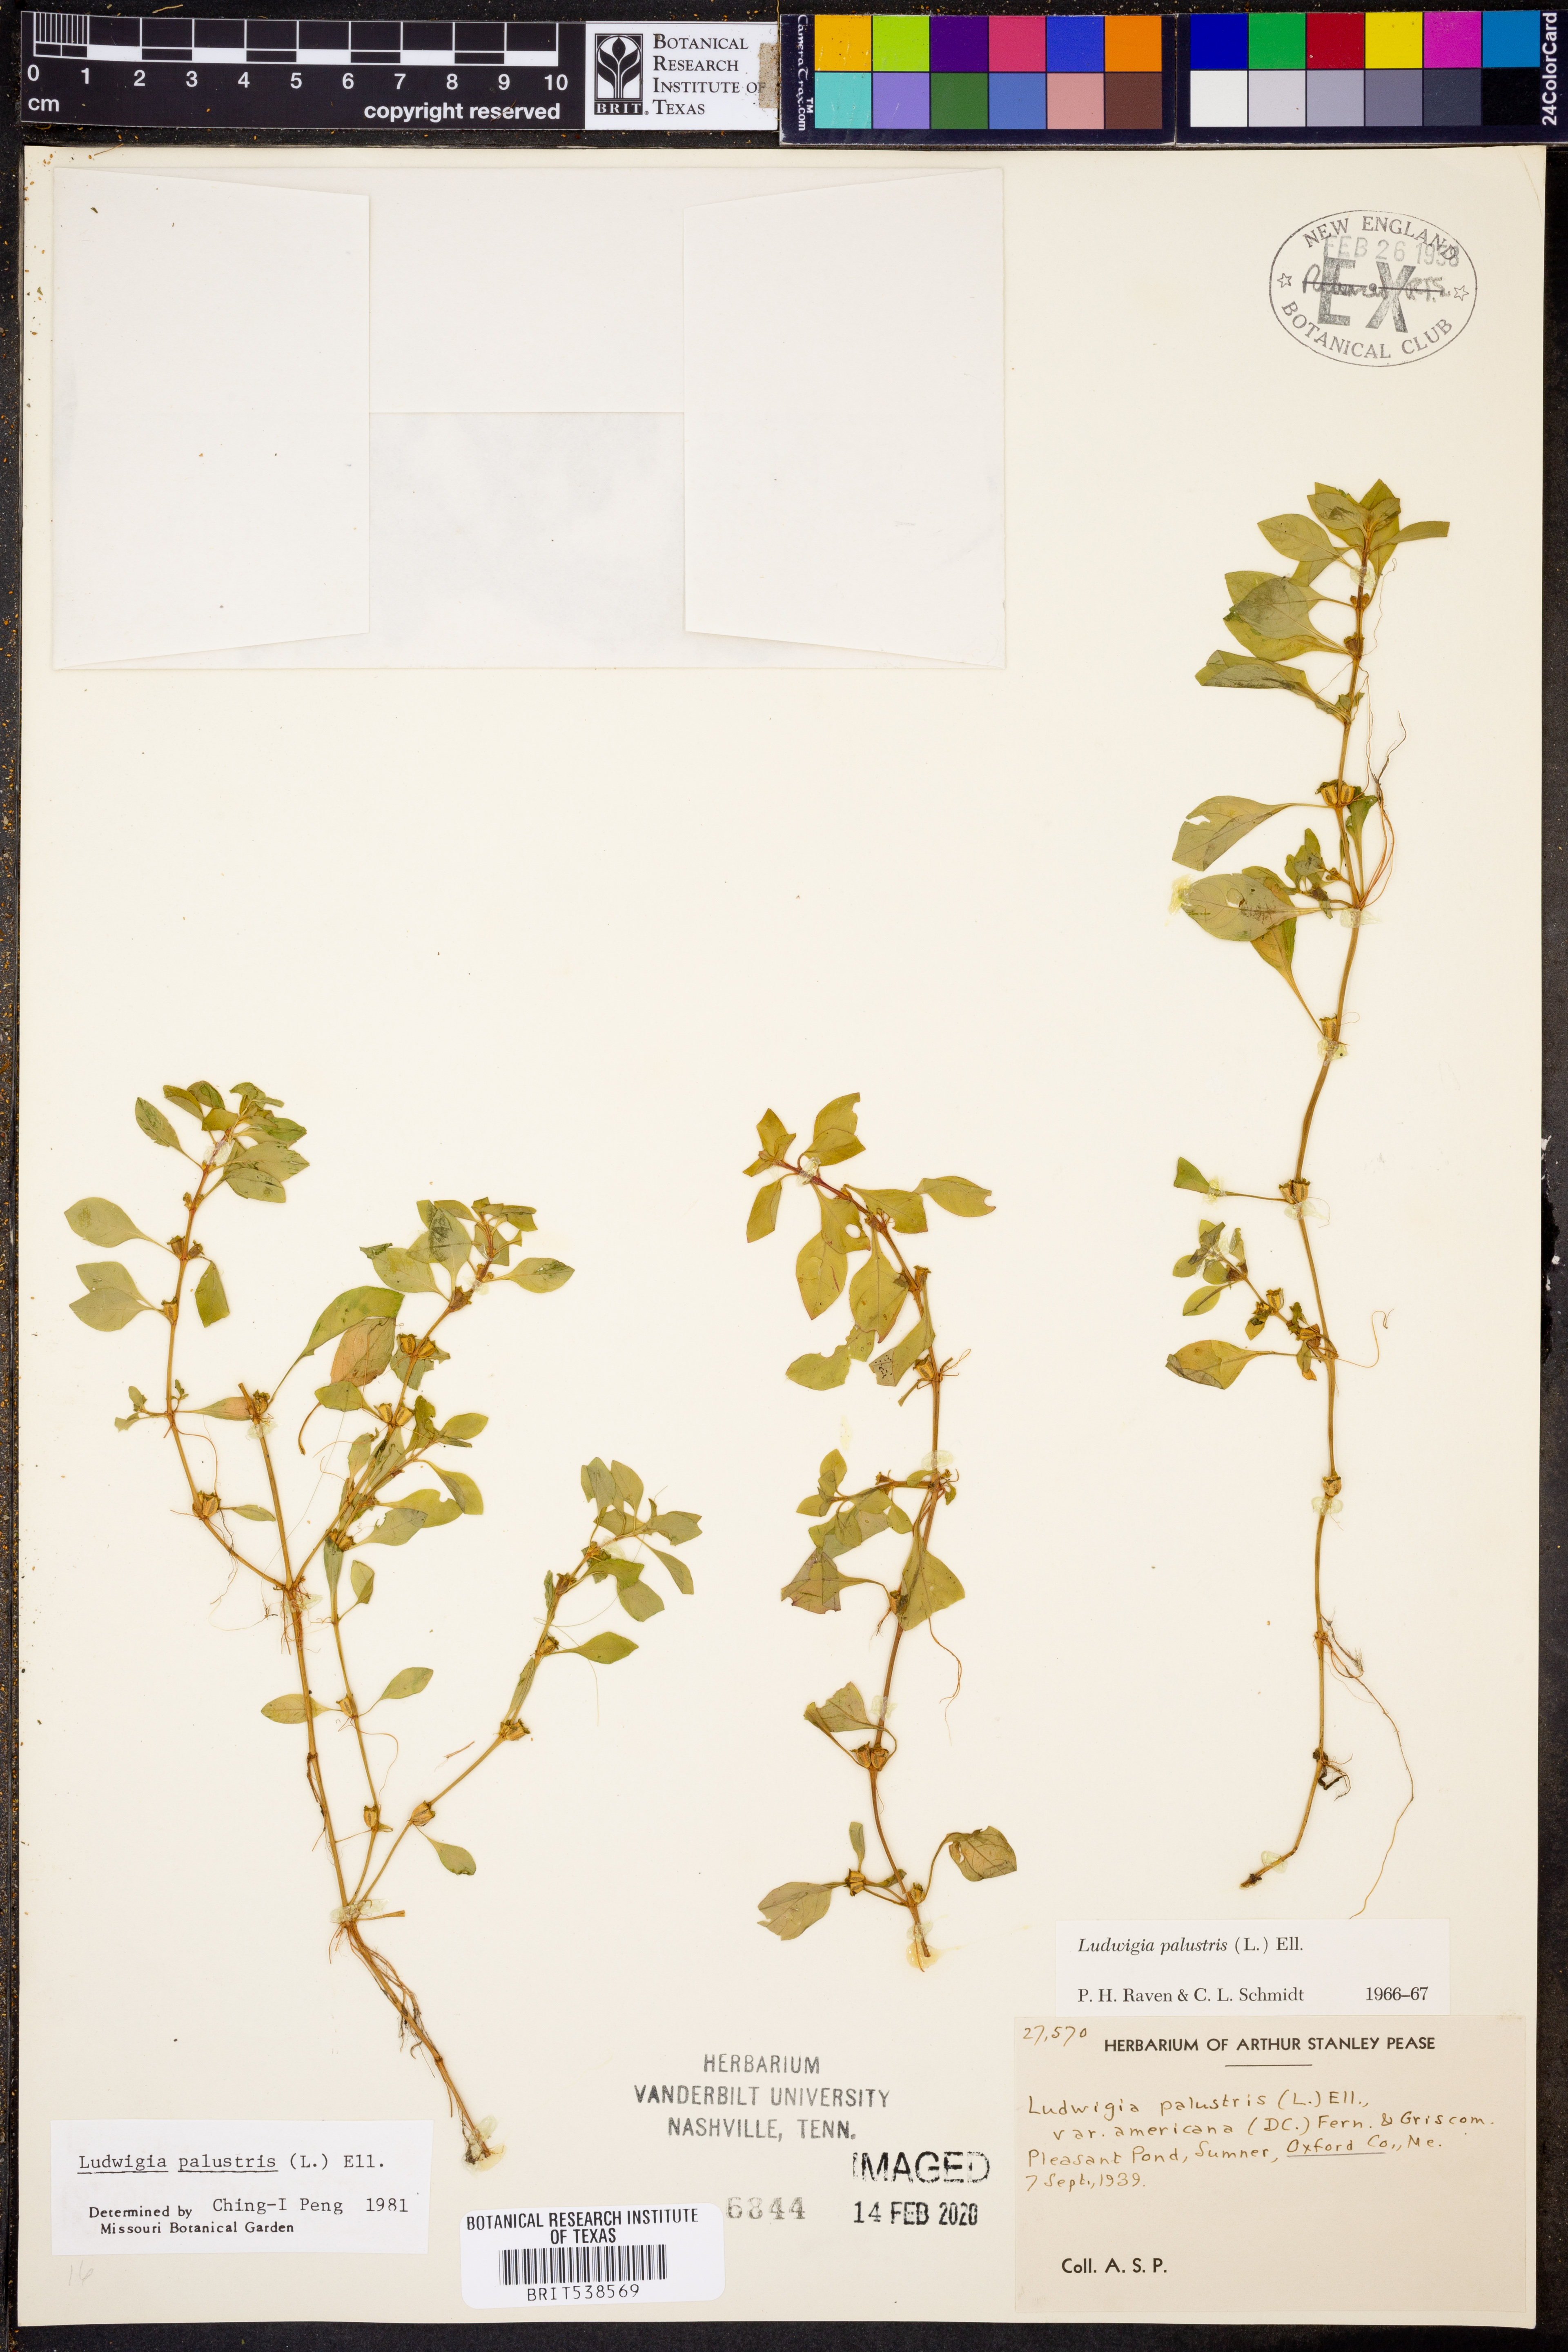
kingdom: Plantae
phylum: Tracheophyta
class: Magnoliopsida
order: Myrtales
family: Onagraceae
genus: Ludwigia
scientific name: Ludwigia palustris
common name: Hampshire-purslane
